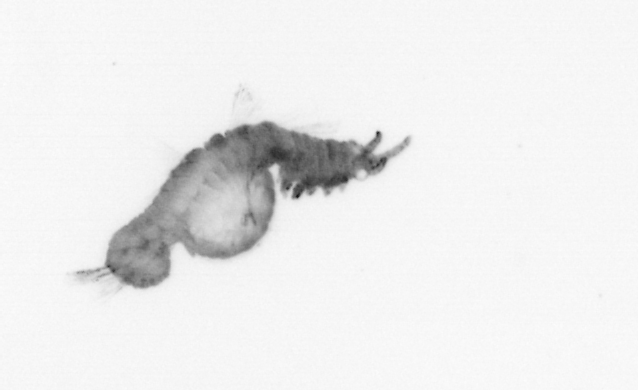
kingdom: Animalia
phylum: Annelida
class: Polychaeta
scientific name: Polychaeta
